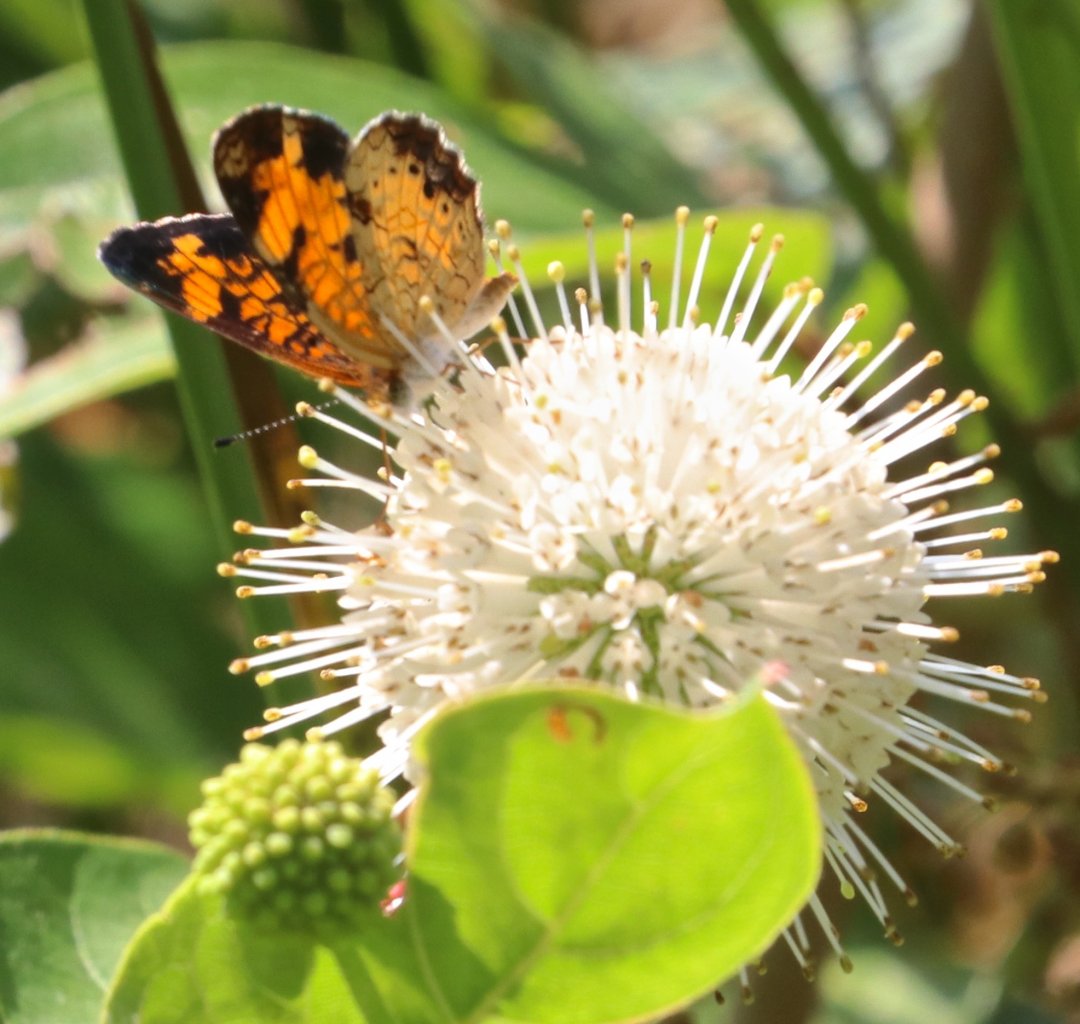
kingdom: Animalia
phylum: Arthropoda
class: Insecta
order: Lepidoptera
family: Nymphalidae
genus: Phyciodes
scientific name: Phyciodes tharos
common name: Pearl Crescent
